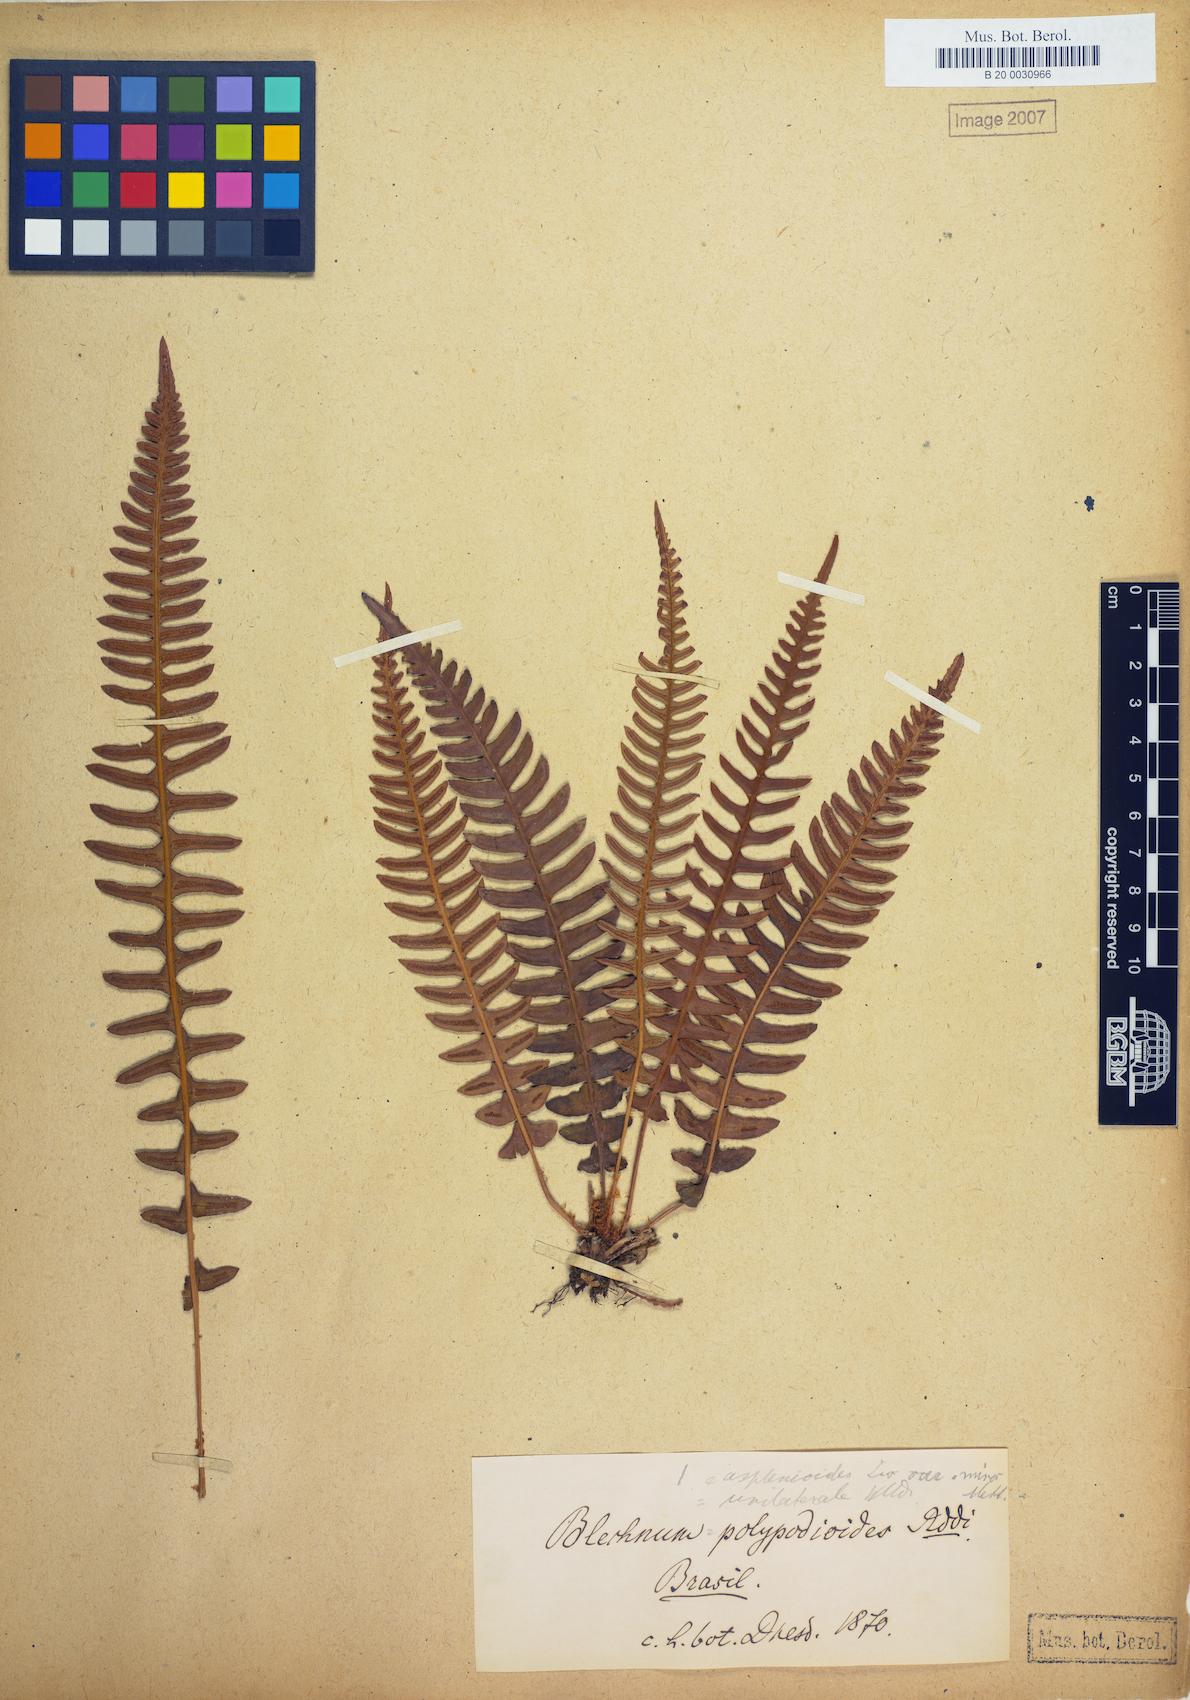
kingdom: Plantae
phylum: Tracheophyta
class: Polypodiopsida
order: Polypodiales
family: Blechnaceae
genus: Blechnum
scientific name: Blechnum polypodioides
